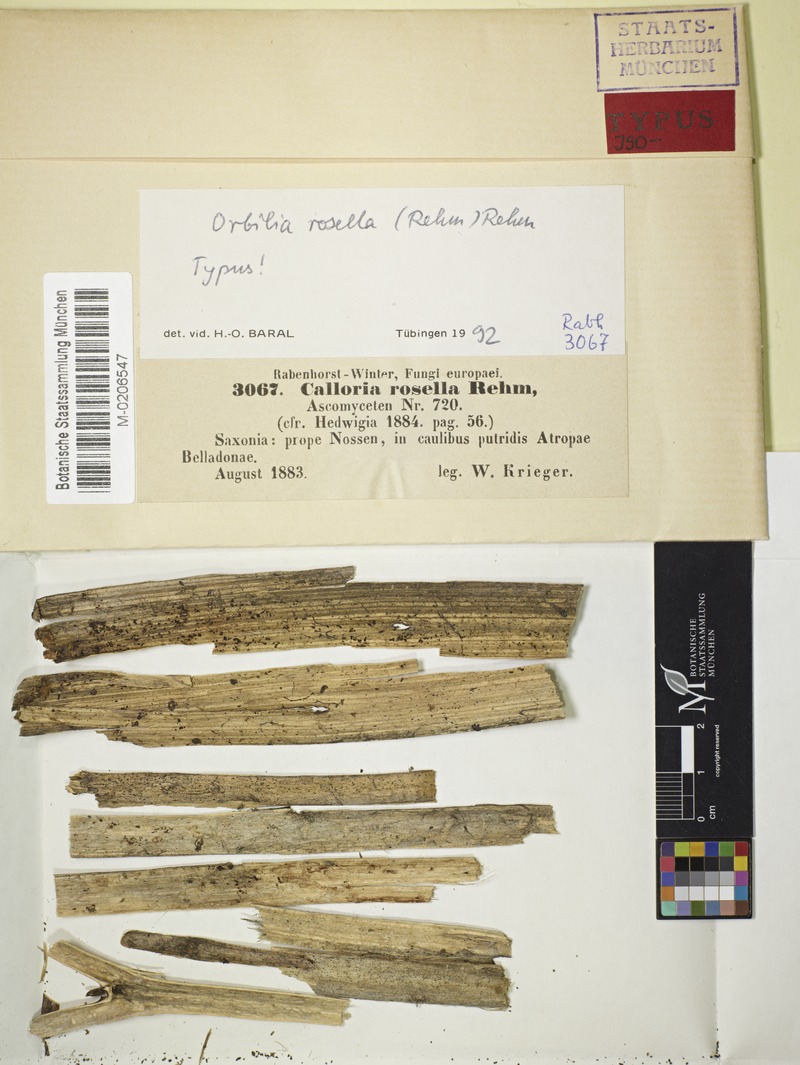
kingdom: Fungi
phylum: Ascomycota
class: Orbiliomycetes
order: Orbiliales
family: Orbiliaceae
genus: Orbilia
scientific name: Orbilia rosella
